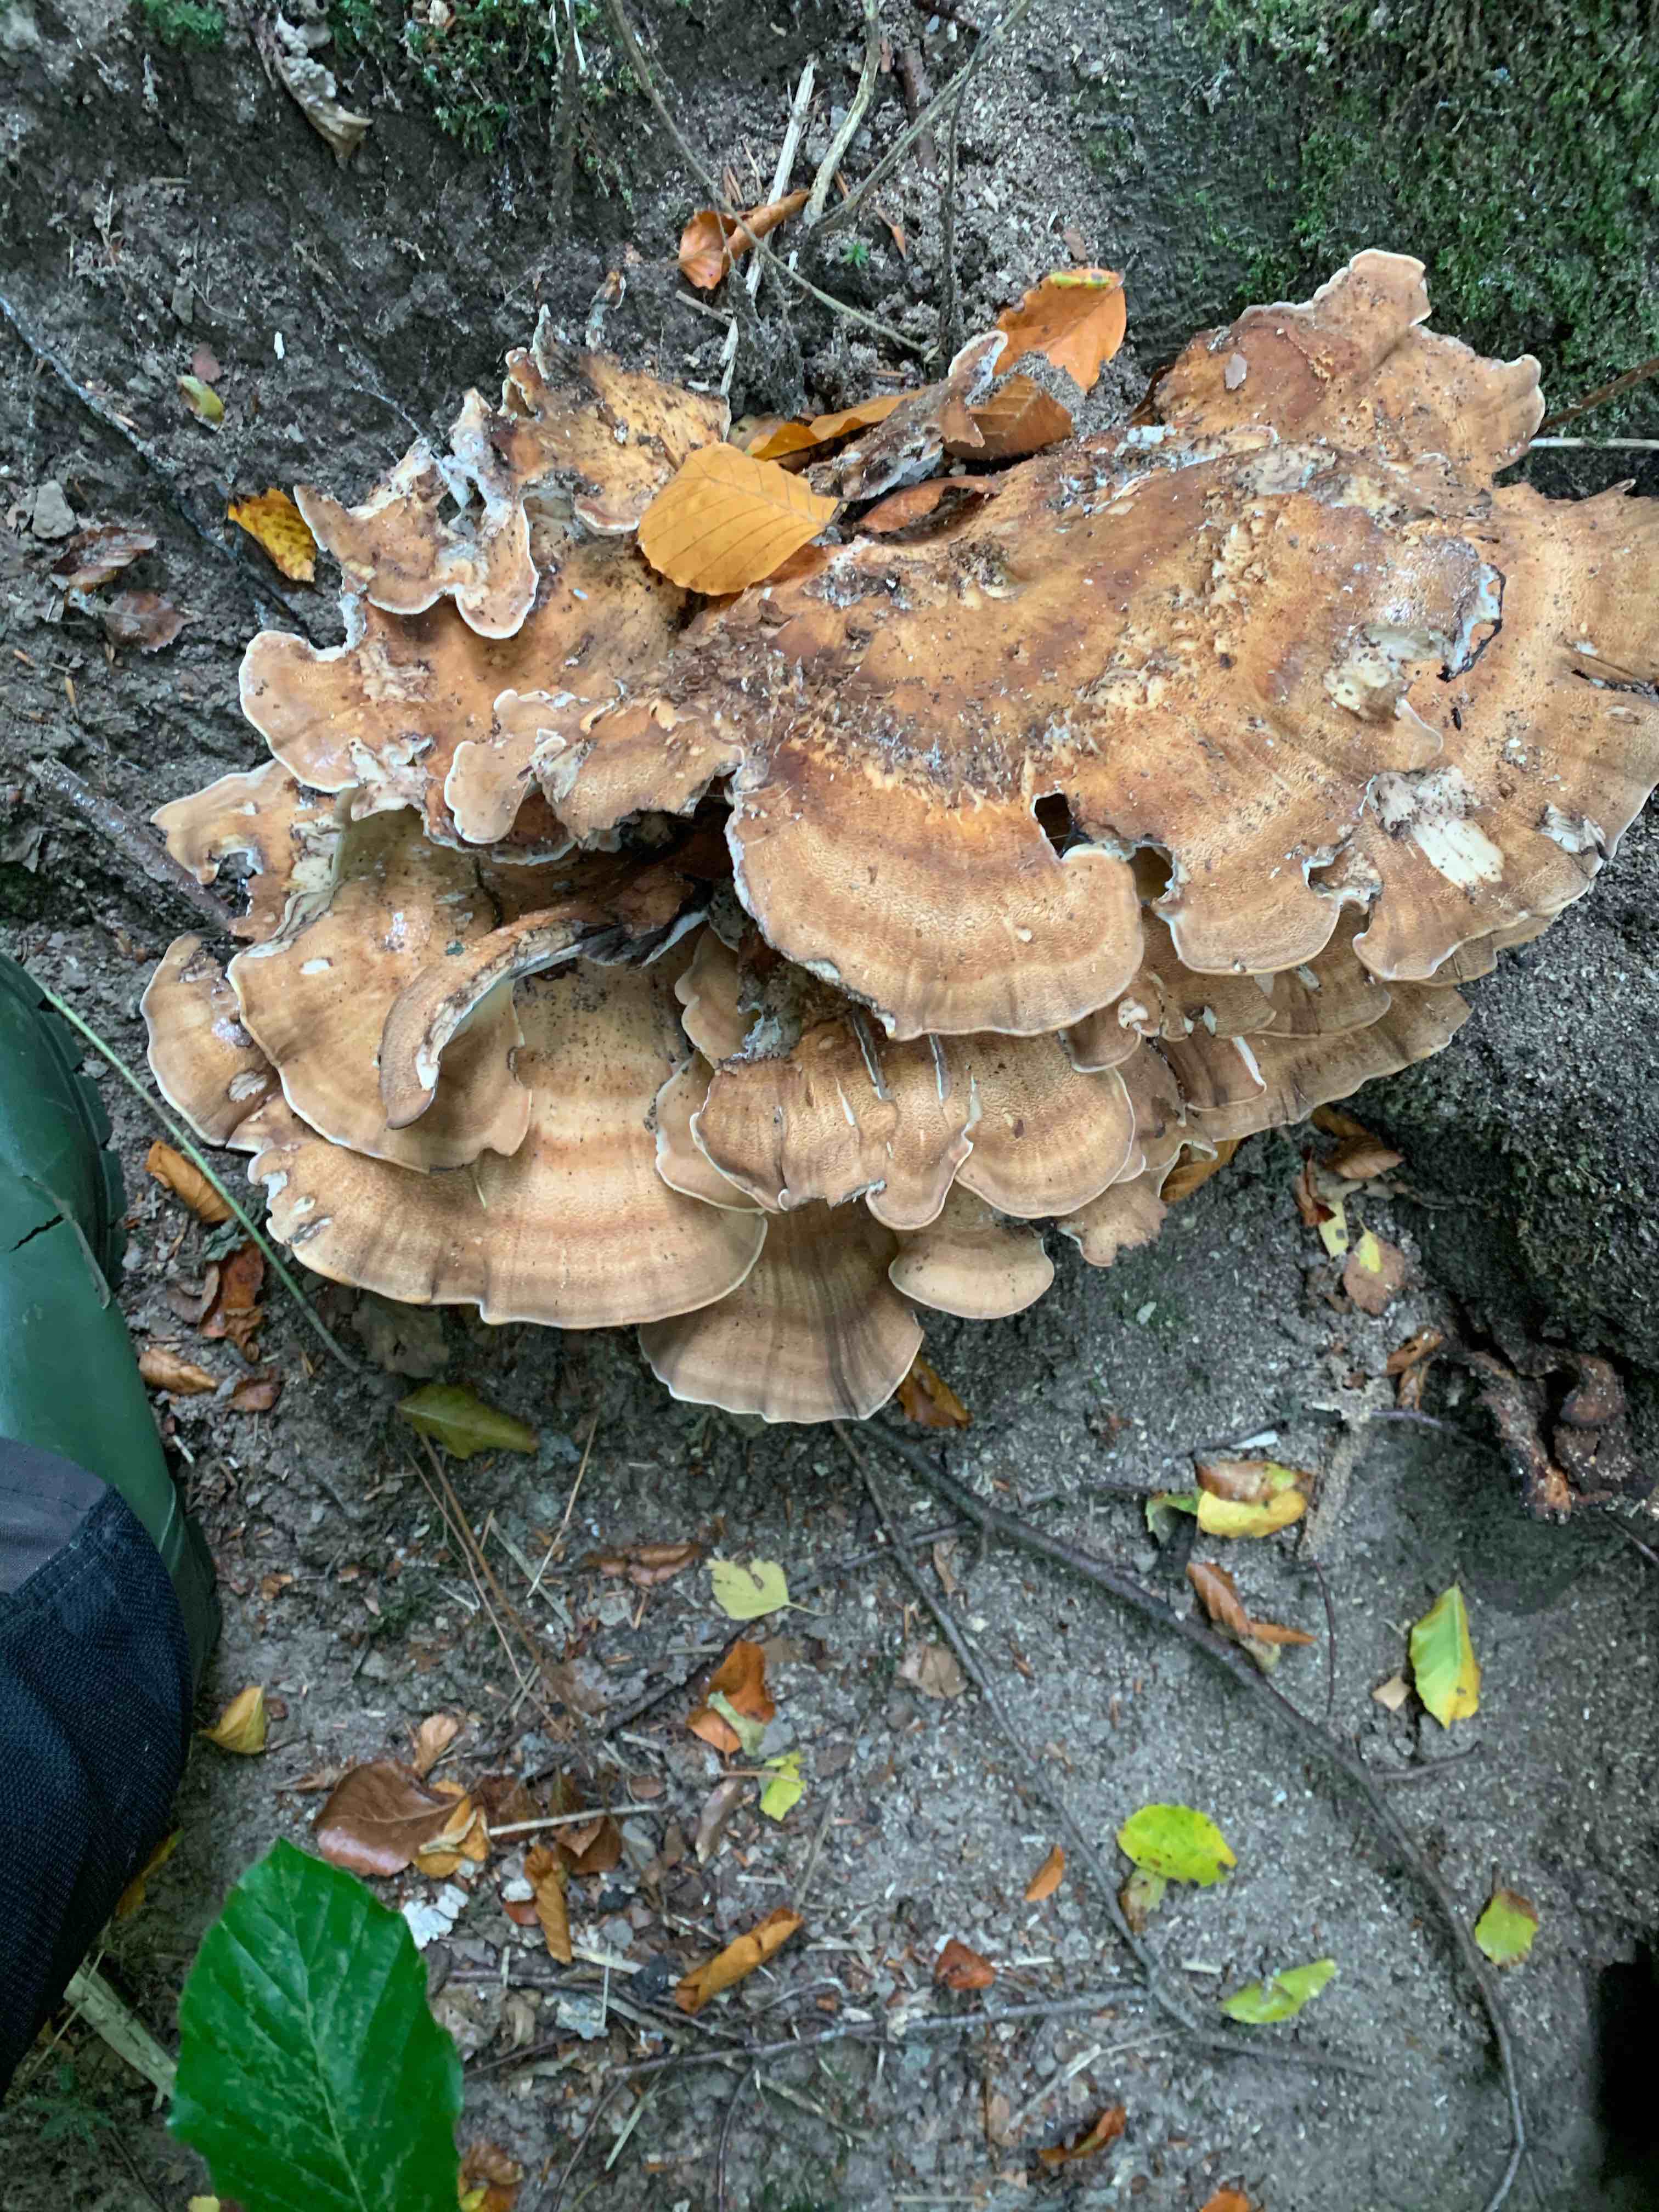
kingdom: Fungi
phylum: Basidiomycota
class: Agaricomycetes
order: Polyporales
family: Meripilaceae
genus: Meripilus
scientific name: Meripilus giganteus
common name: kæmpeporesvamp
